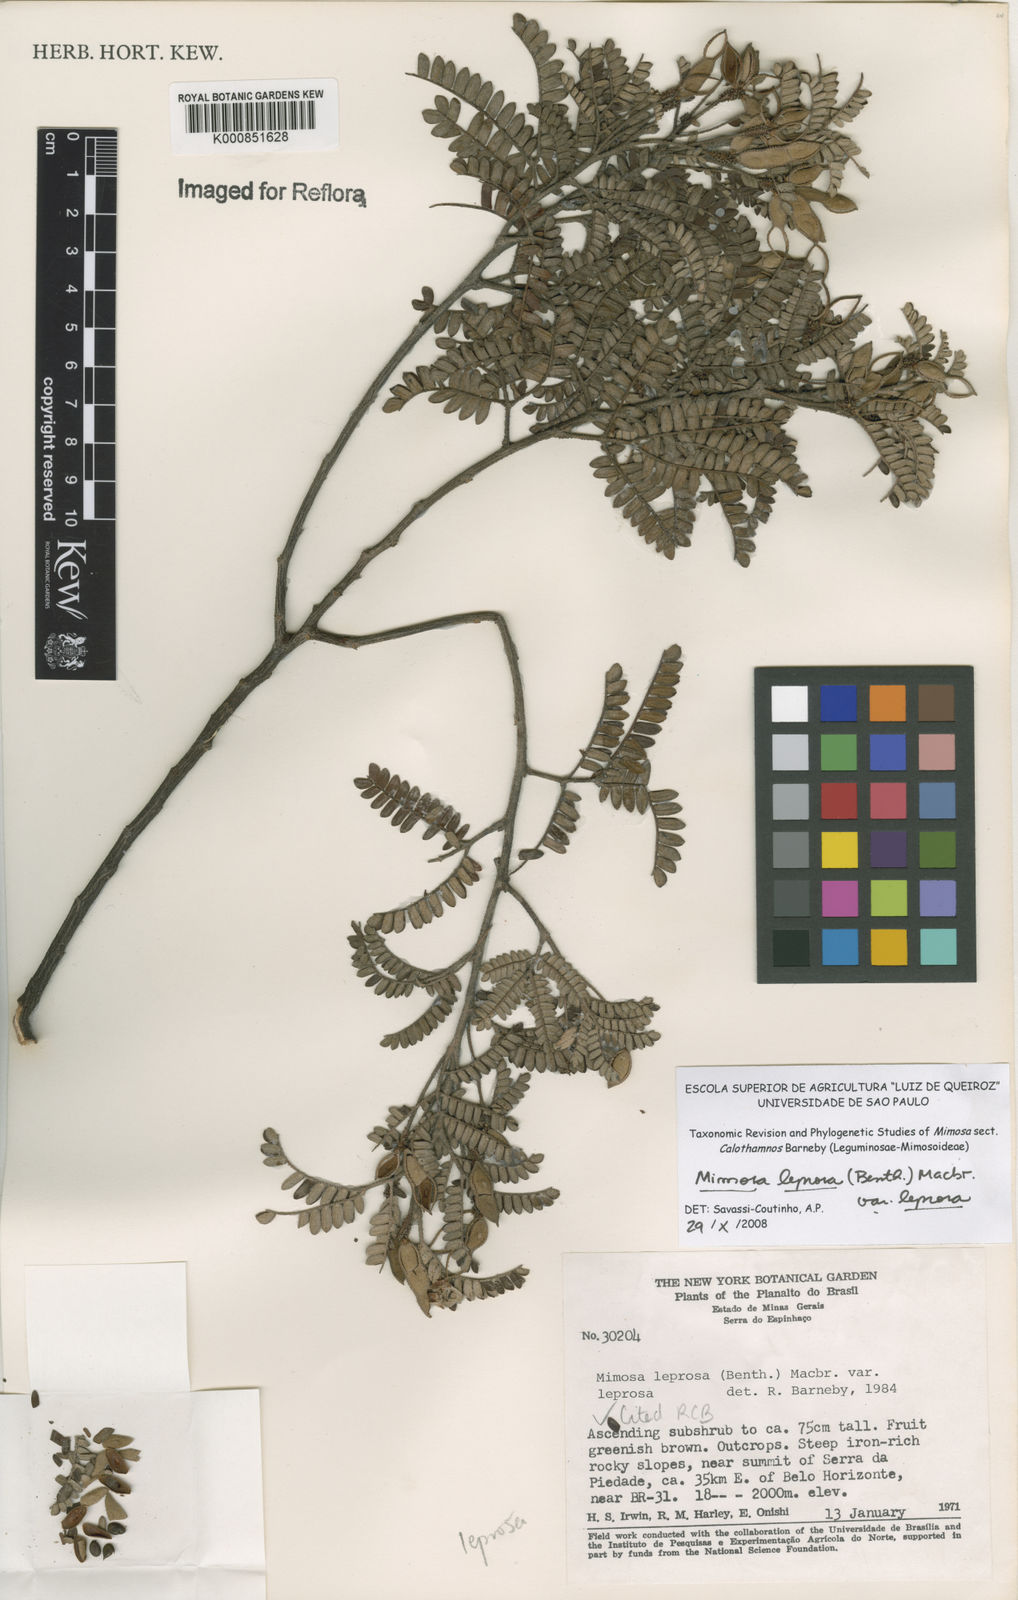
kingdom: Plantae
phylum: Tracheophyta
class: Magnoliopsida
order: Fabales
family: Fabaceae
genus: Mimosa
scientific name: Mimosa leprosa
